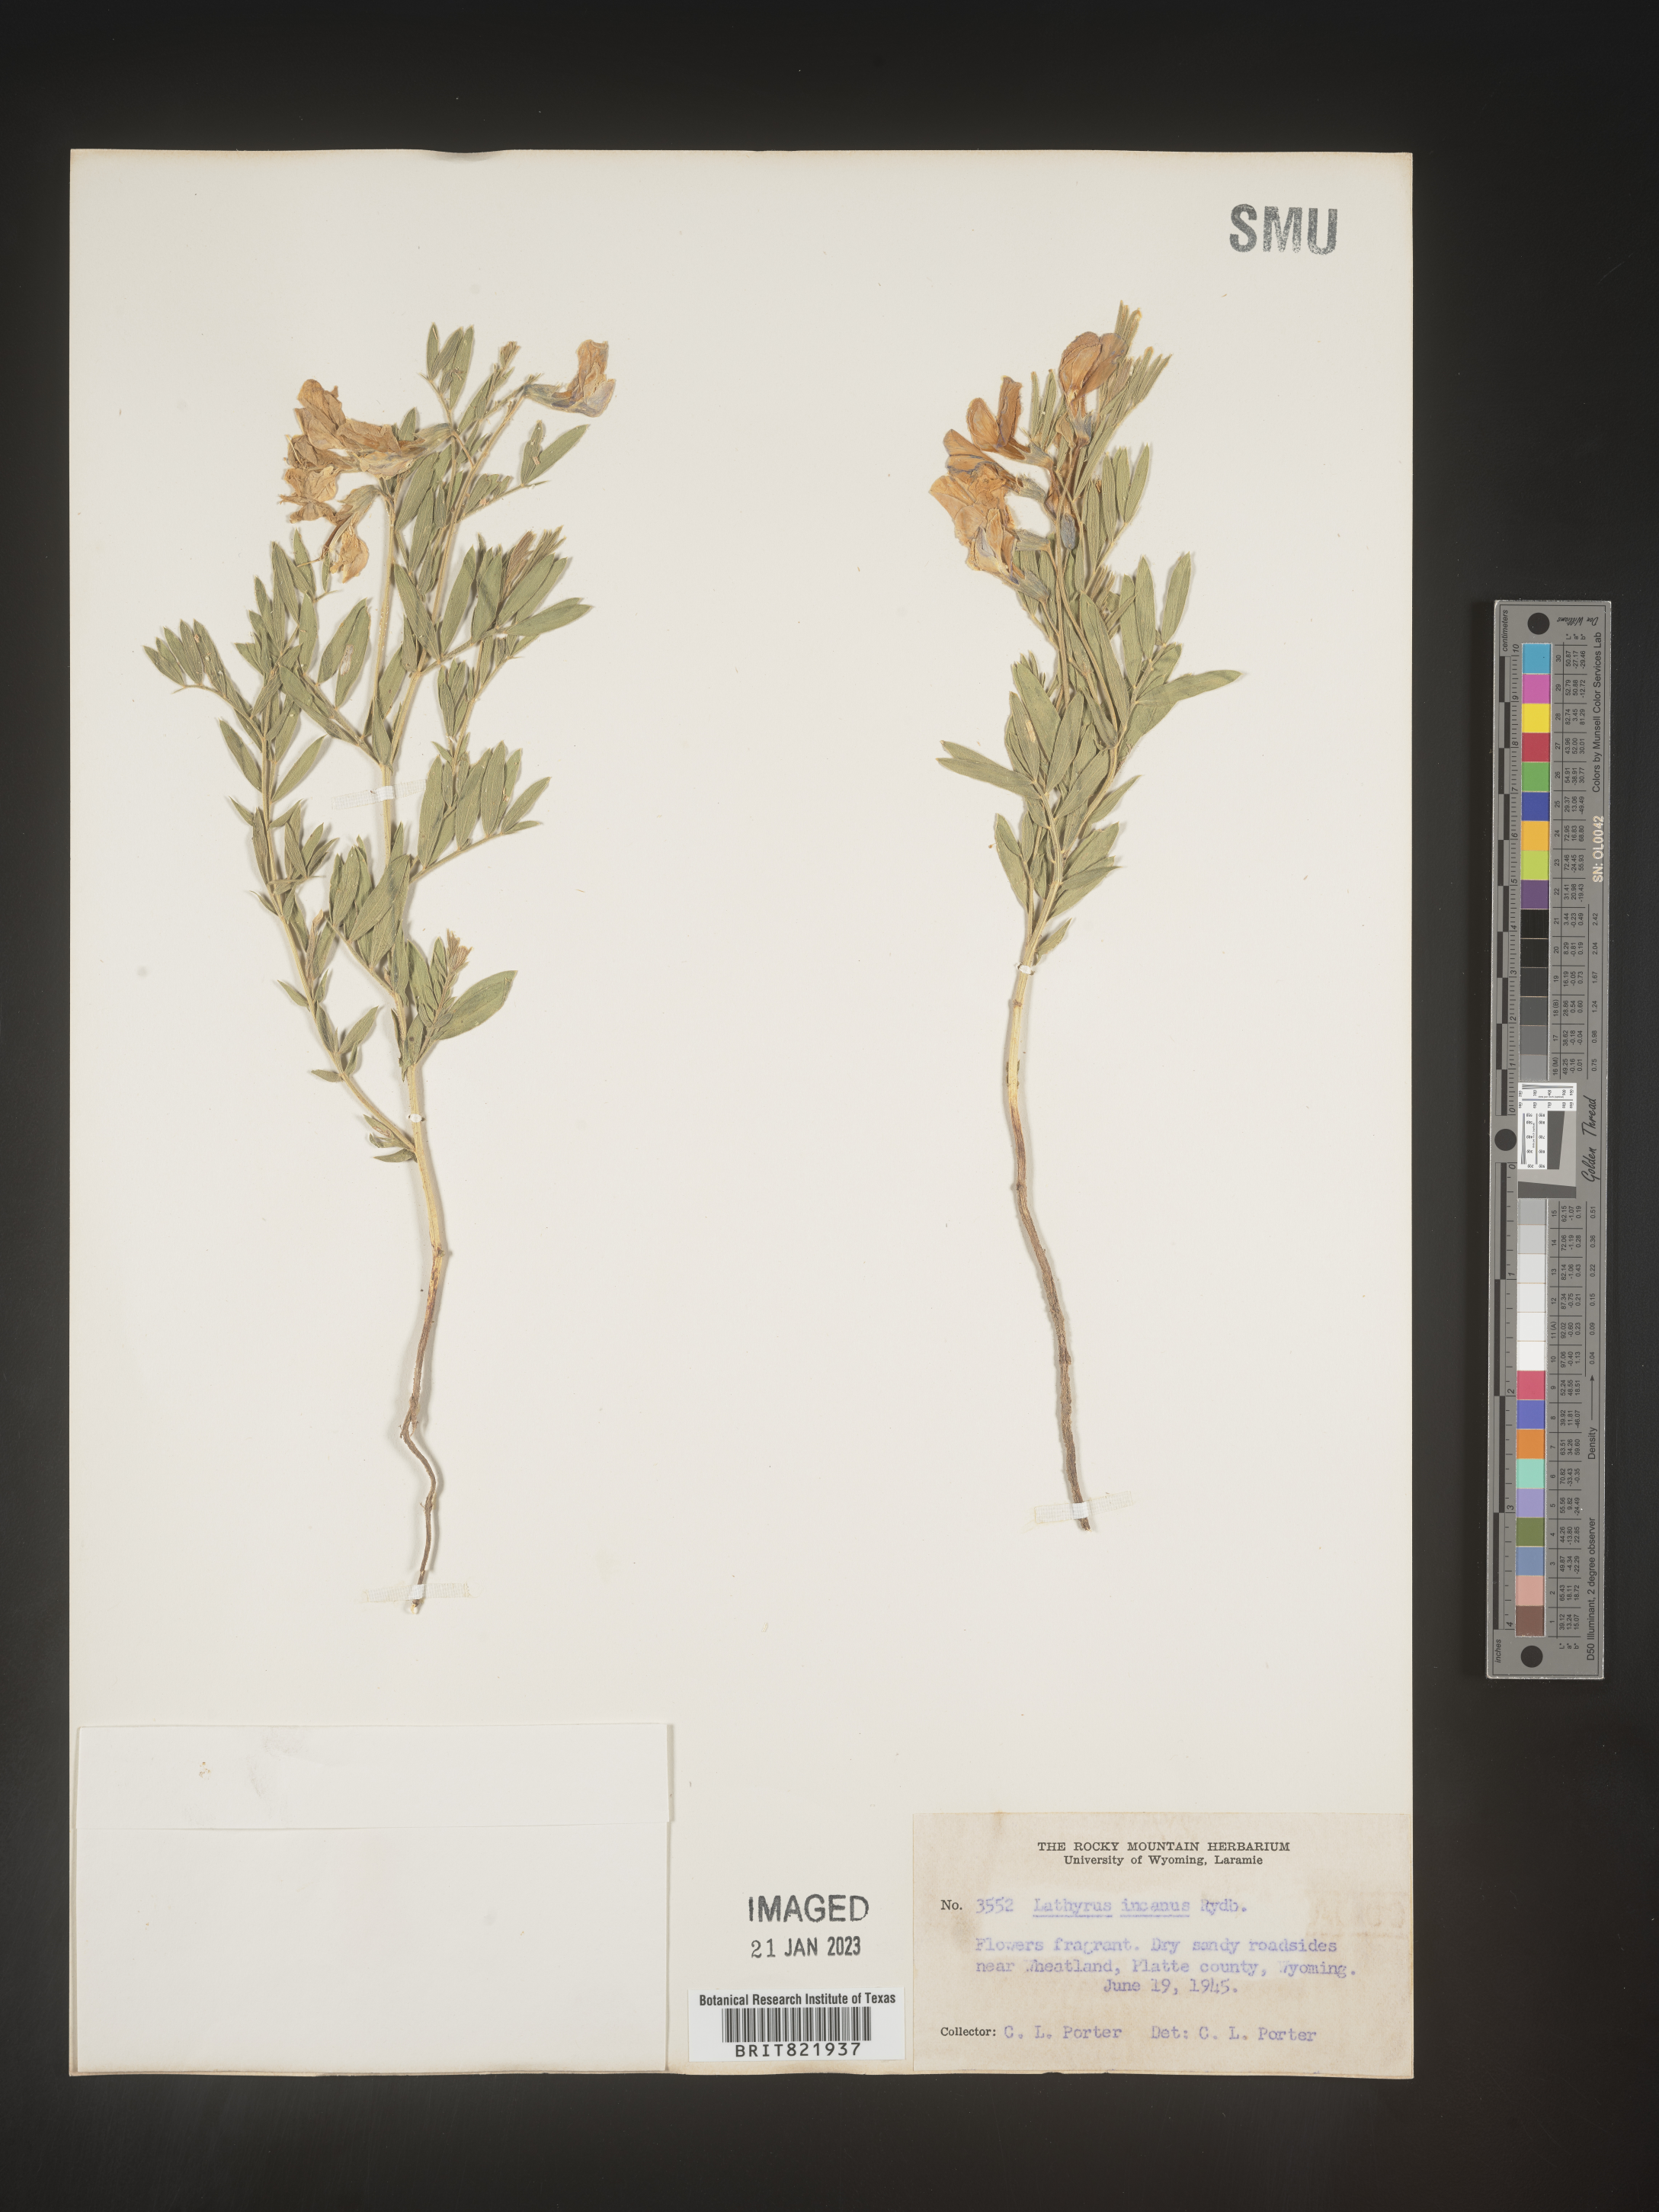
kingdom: Plantae
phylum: Tracheophyta
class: Magnoliopsida
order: Fabales
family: Fabaceae
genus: Lathyrus
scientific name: Lathyrus
